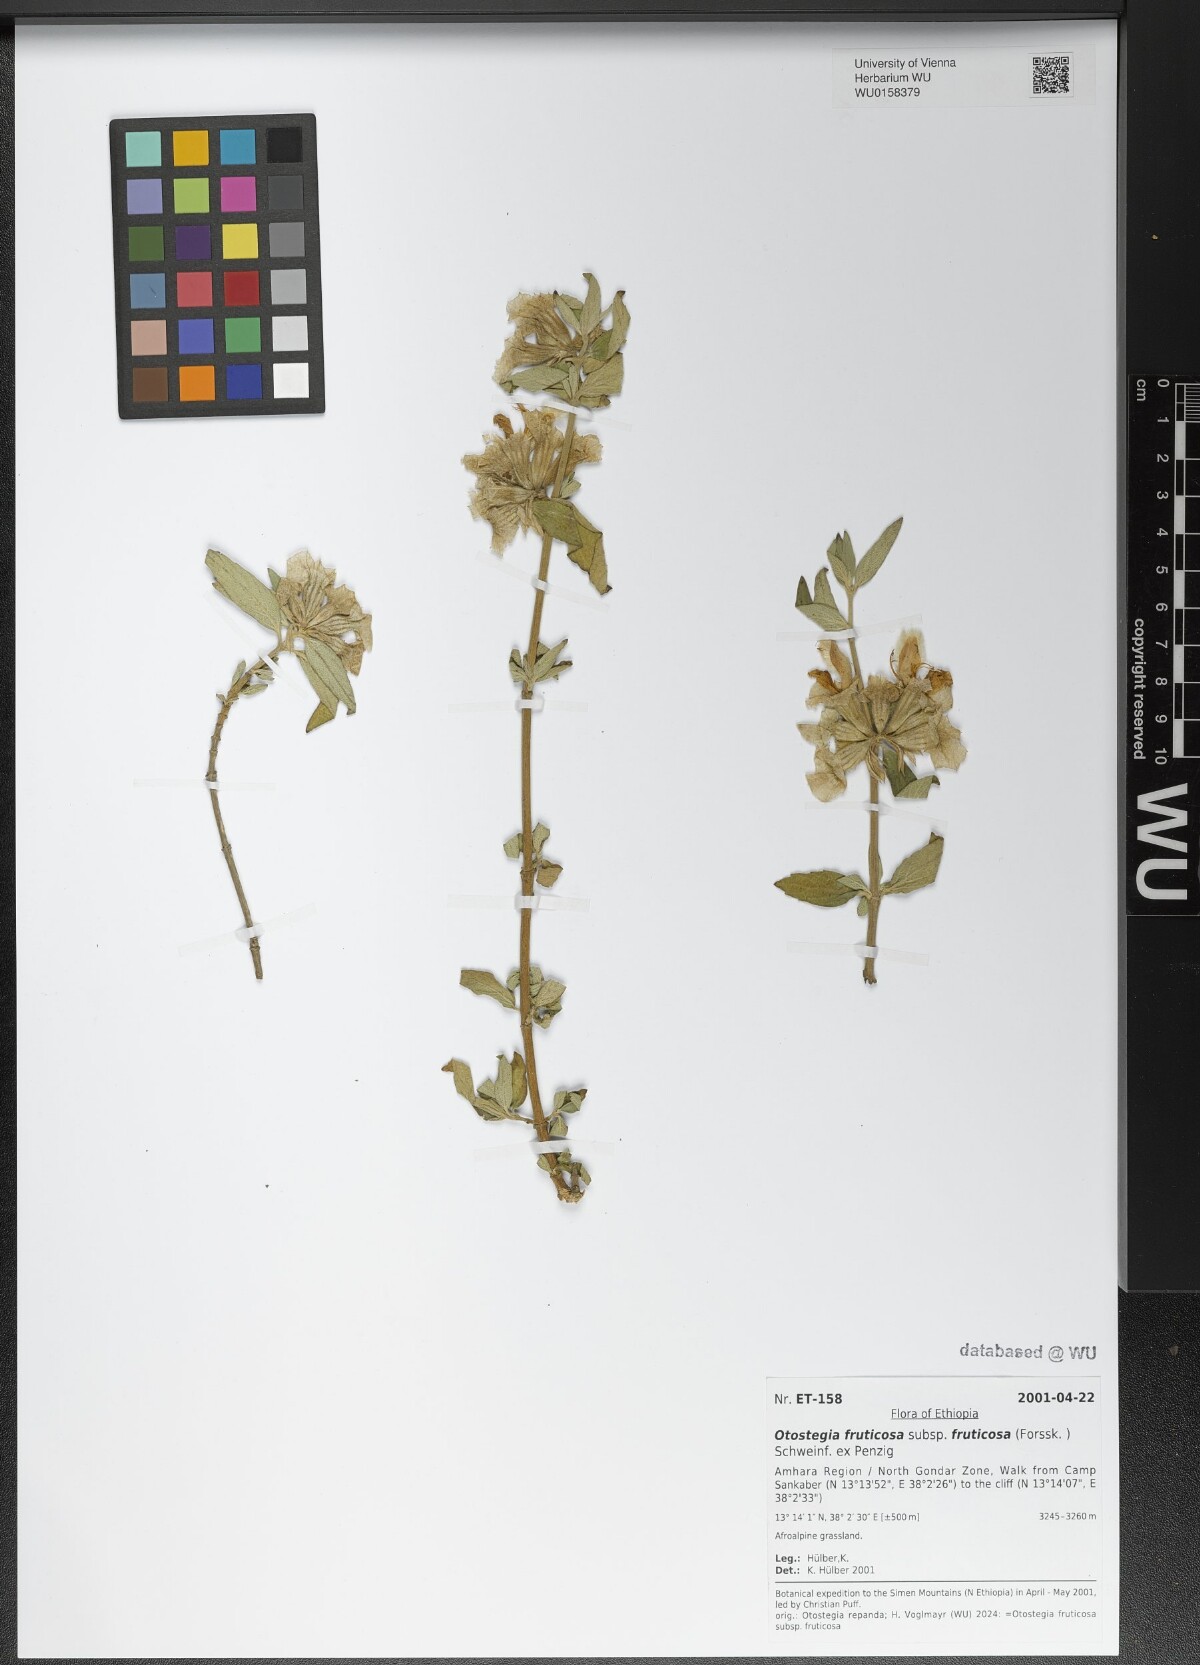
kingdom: Plantae
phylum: Tracheophyta
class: Magnoliopsida
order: Lamiales
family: Lamiaceae
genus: Otostegia
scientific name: Otostegia fruticosa
